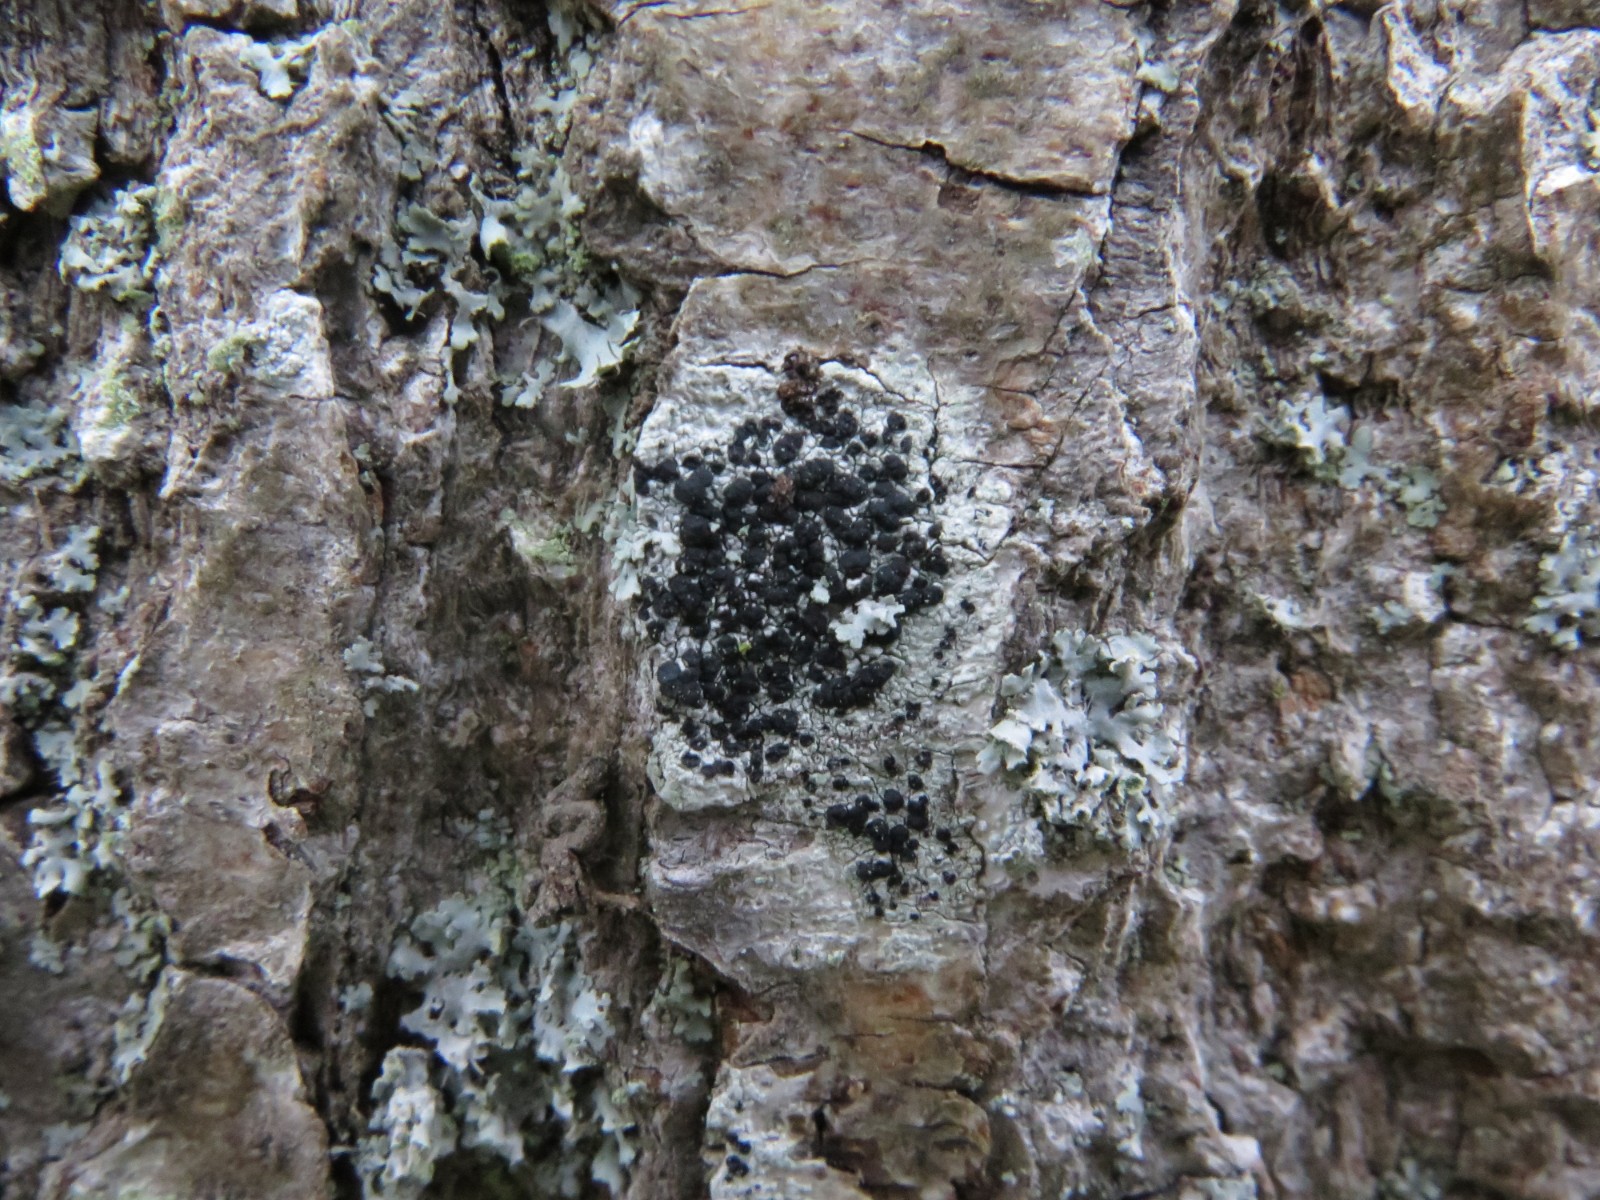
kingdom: Fungi
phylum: Ascomycota
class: Lecanoromycetes
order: Lecanorales
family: Lecanoraceae
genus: Lecidella
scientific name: Lecidella elaeochroma
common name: grågrøn skivelav
